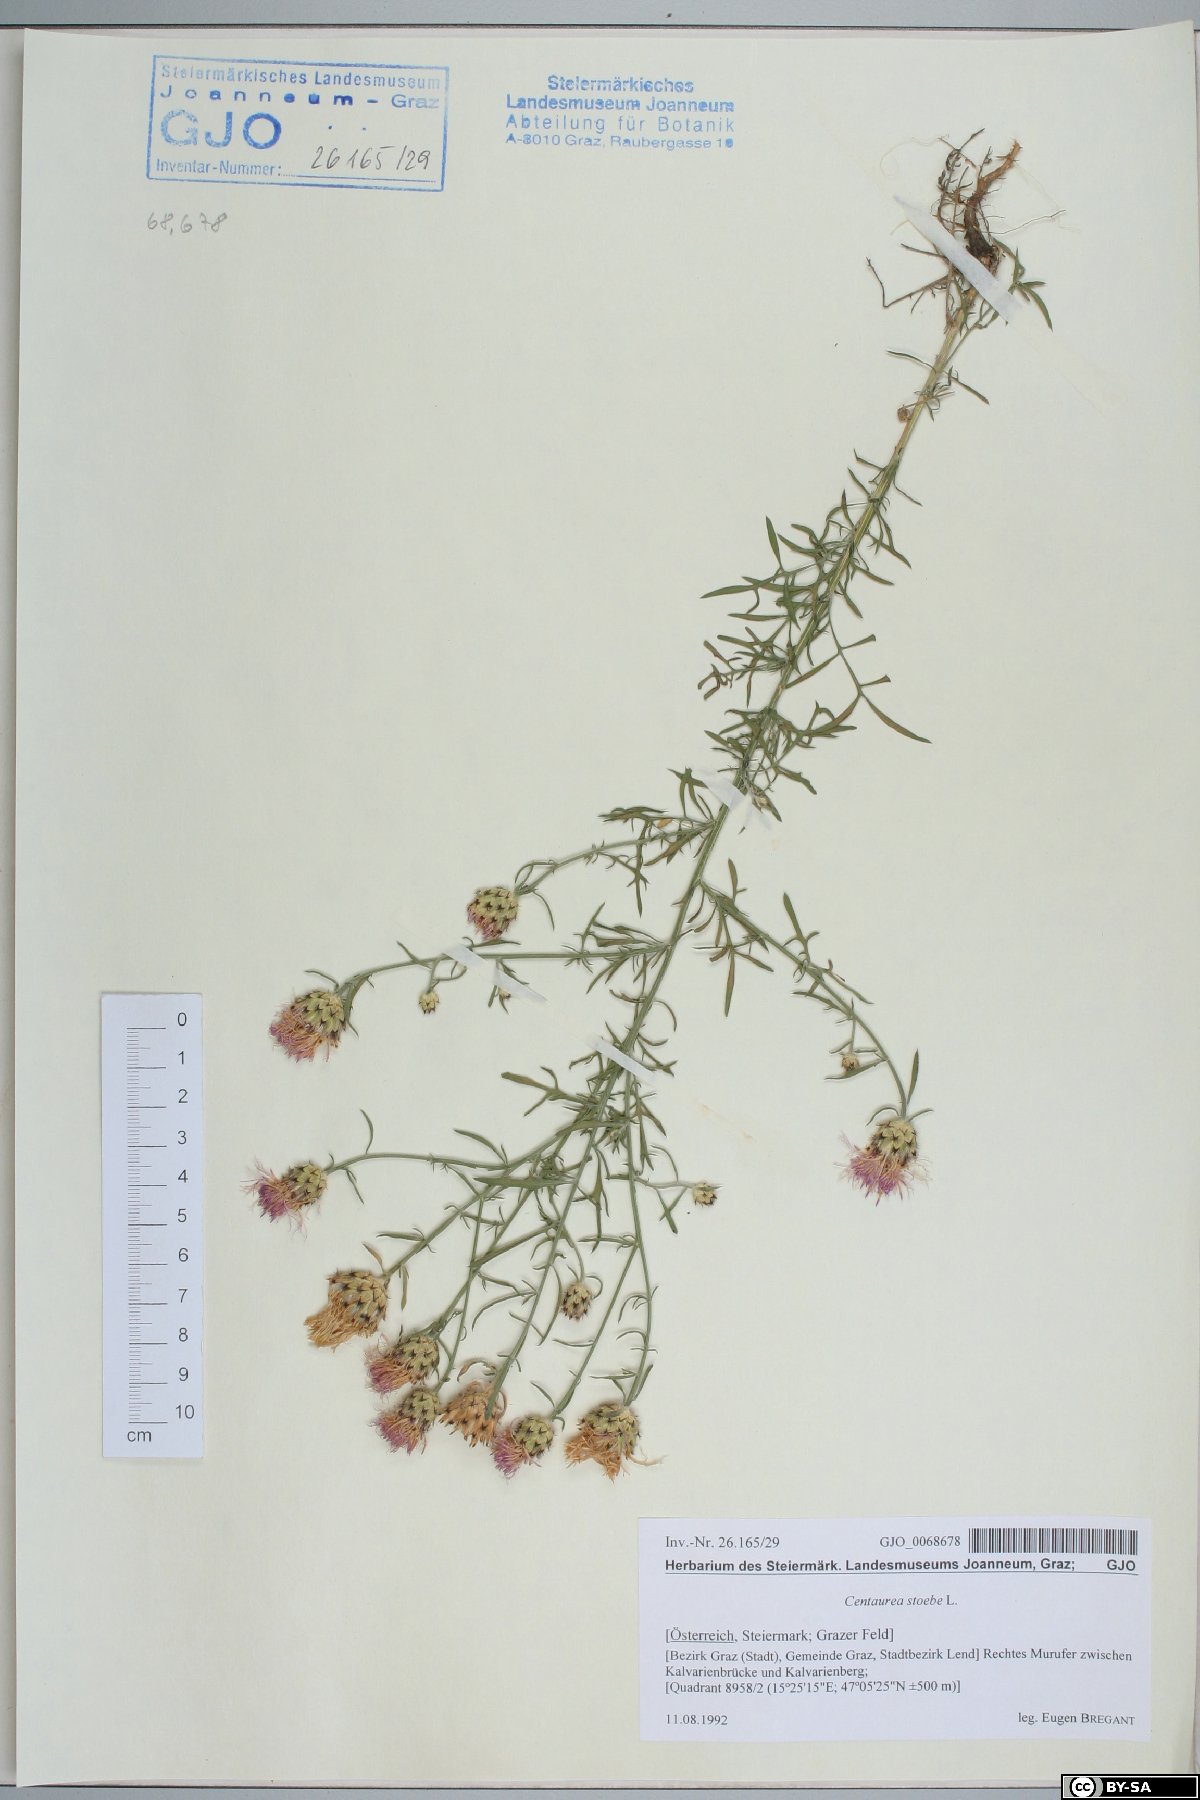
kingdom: Plantae
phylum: Tracheophyta
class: Magnoliopsida
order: Asterales
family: Asteraceae
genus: Centaurea
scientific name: Centaurea stoebe
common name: Spotted knapweed
